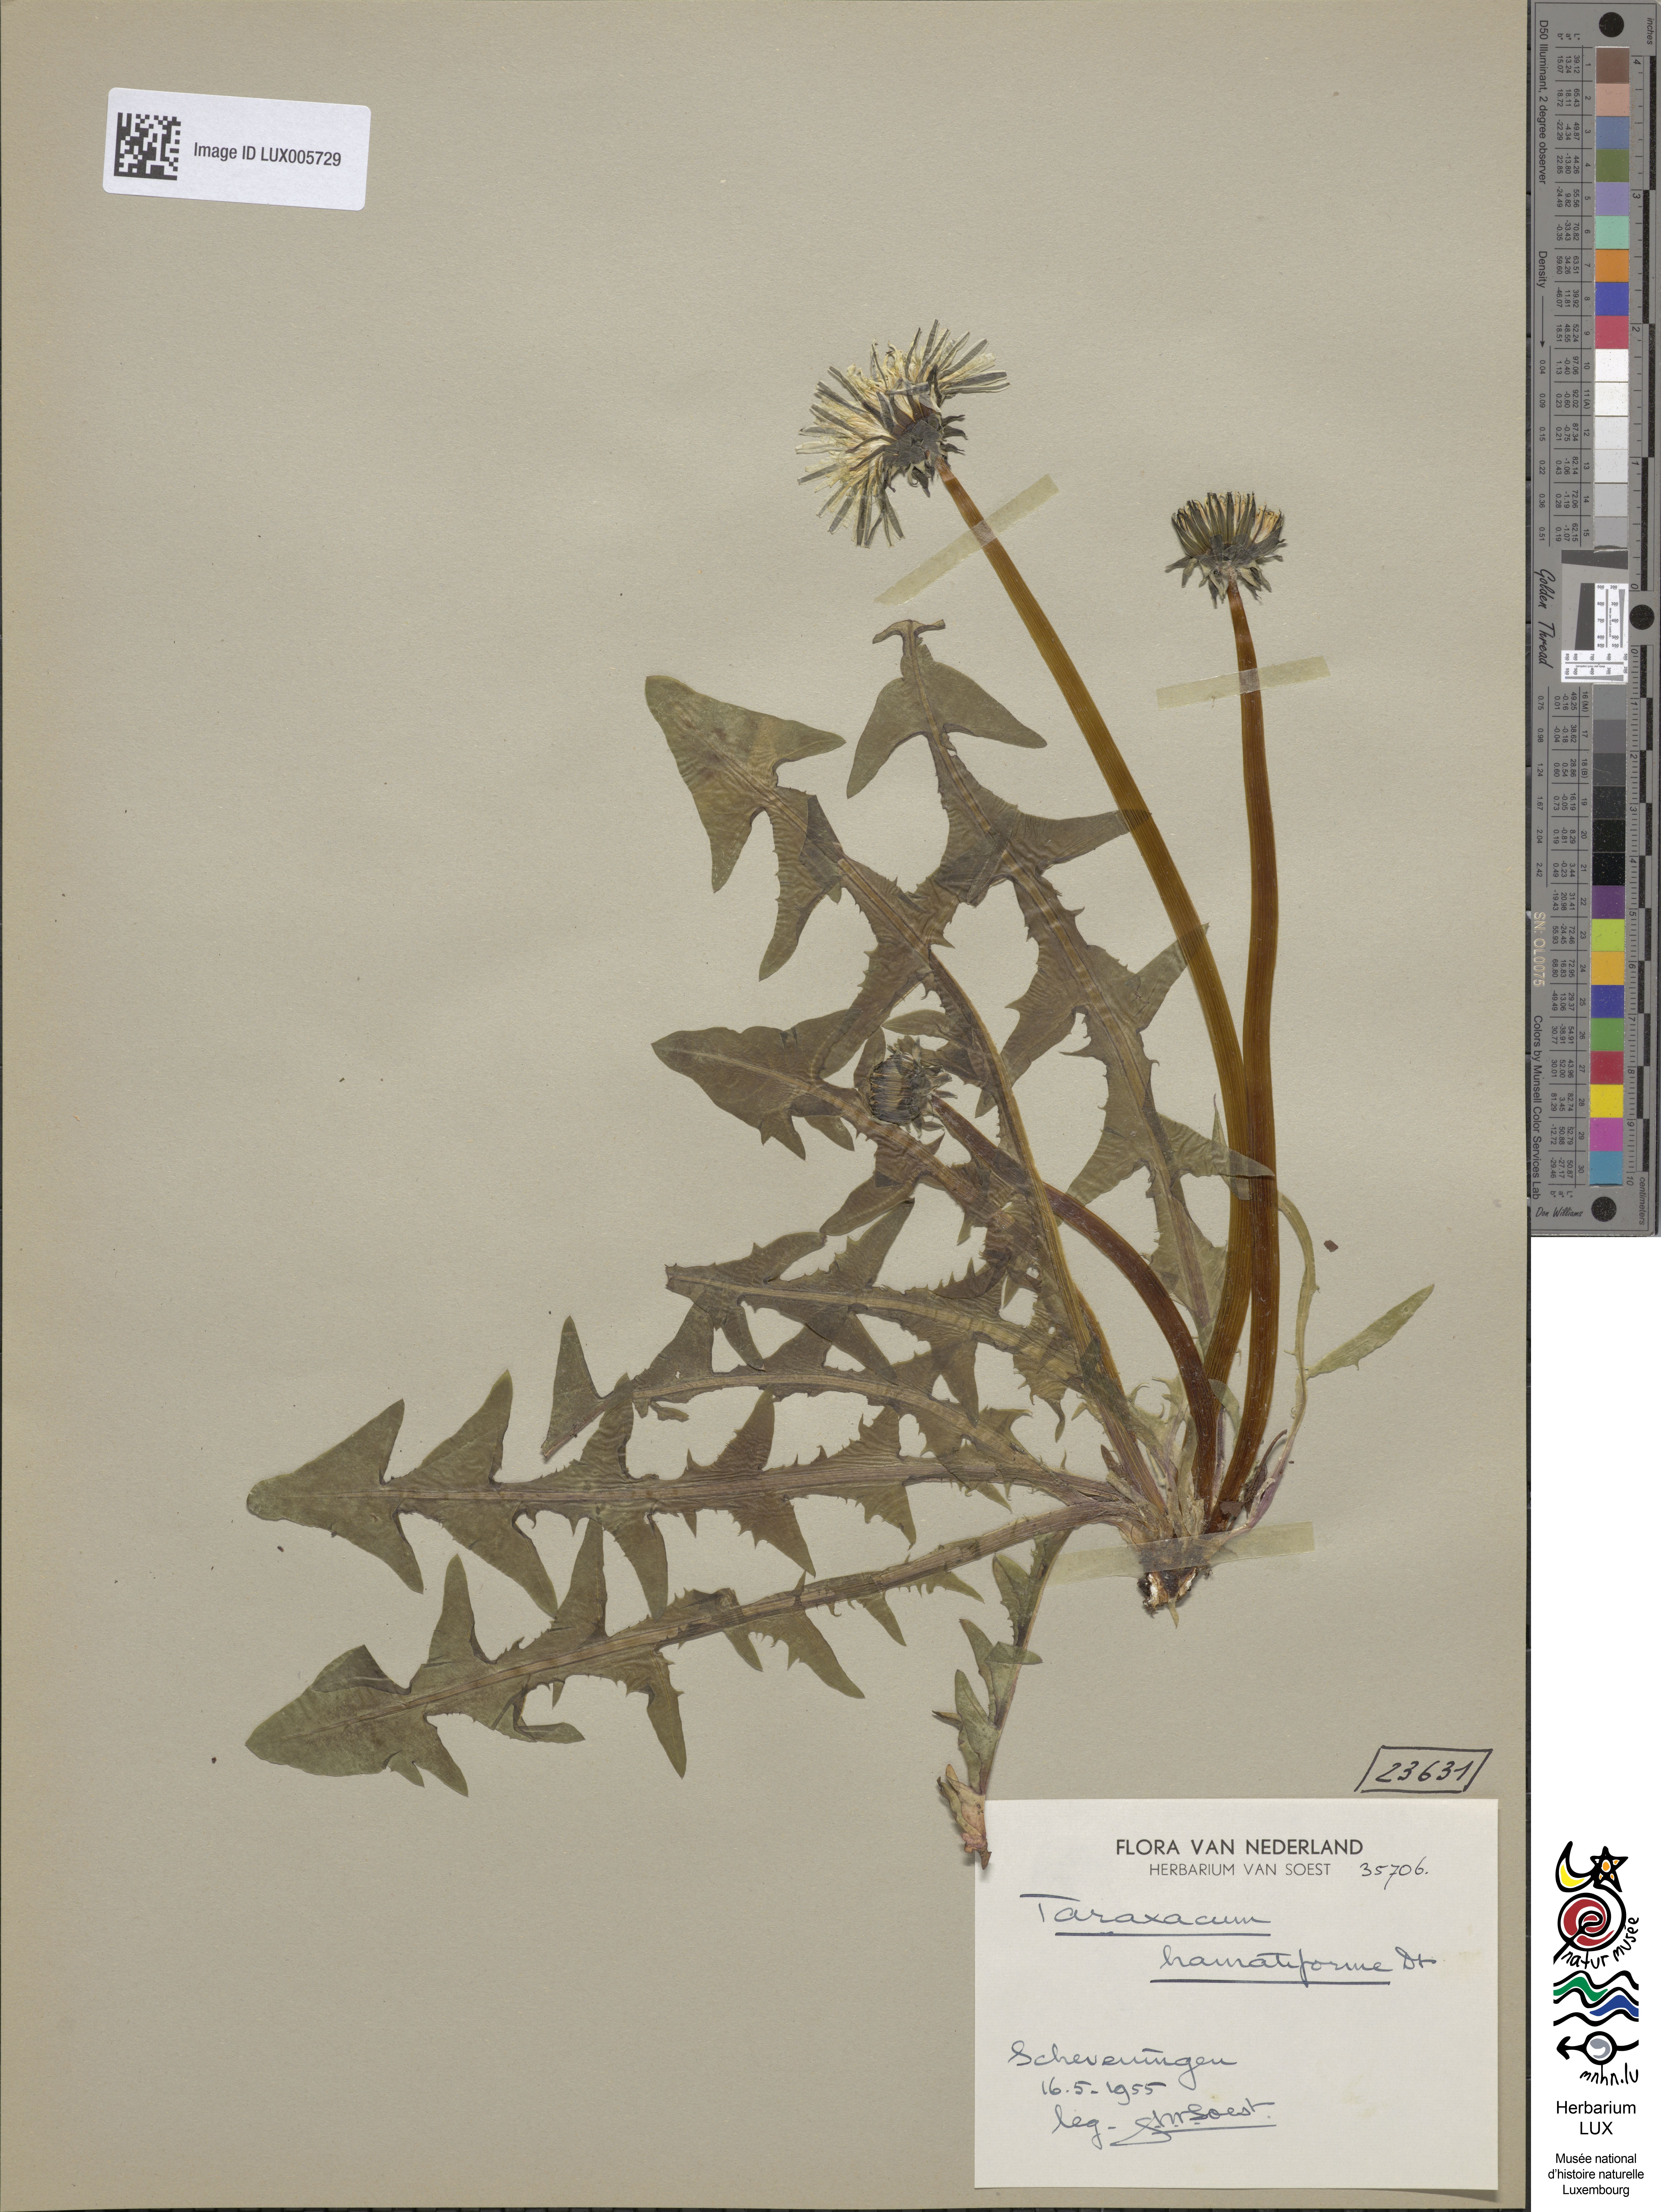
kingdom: Plantae
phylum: Tracheophyta
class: Magnoliopsida
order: Asterales
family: Asteraceae
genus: Taraxacum
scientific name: Taraxacum hamatiforme
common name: Asymmetrical hook-lobed dandelion
